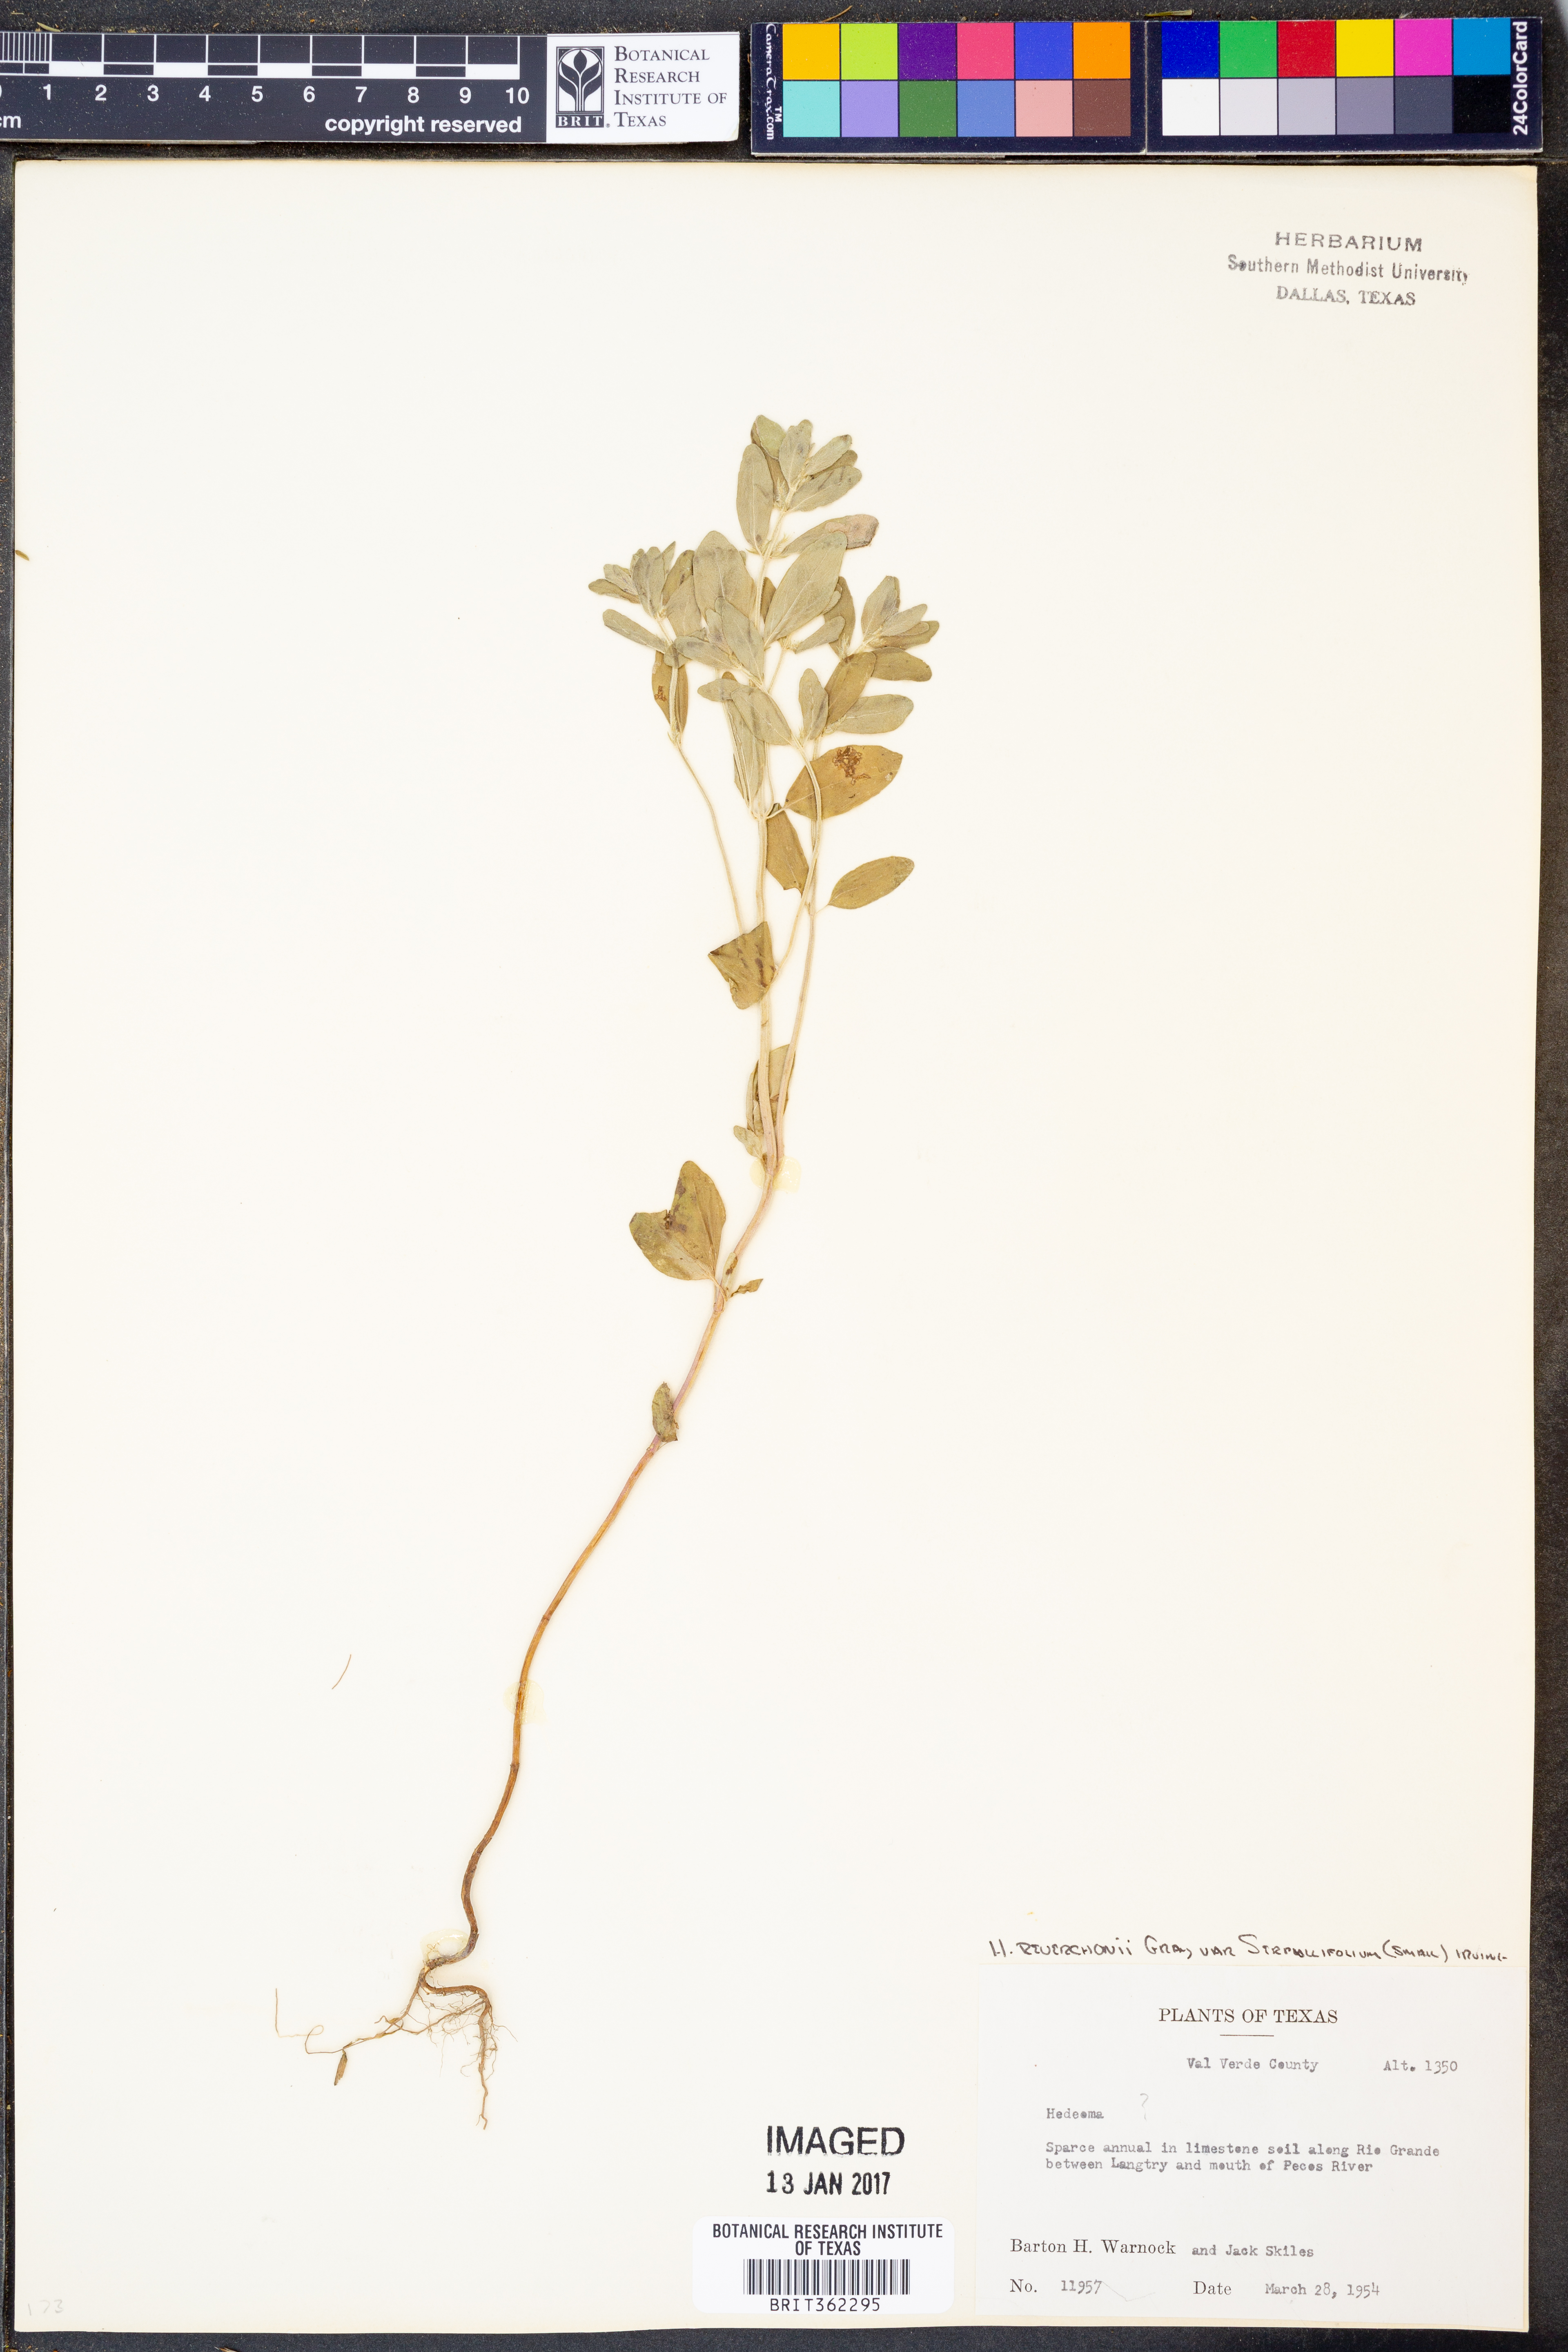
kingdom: Plantae
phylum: Tracheophyta
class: Magnoliopsida
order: Lamiales
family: Lamiaceae
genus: Hedeoma
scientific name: Hedeoma serpyllifolia
